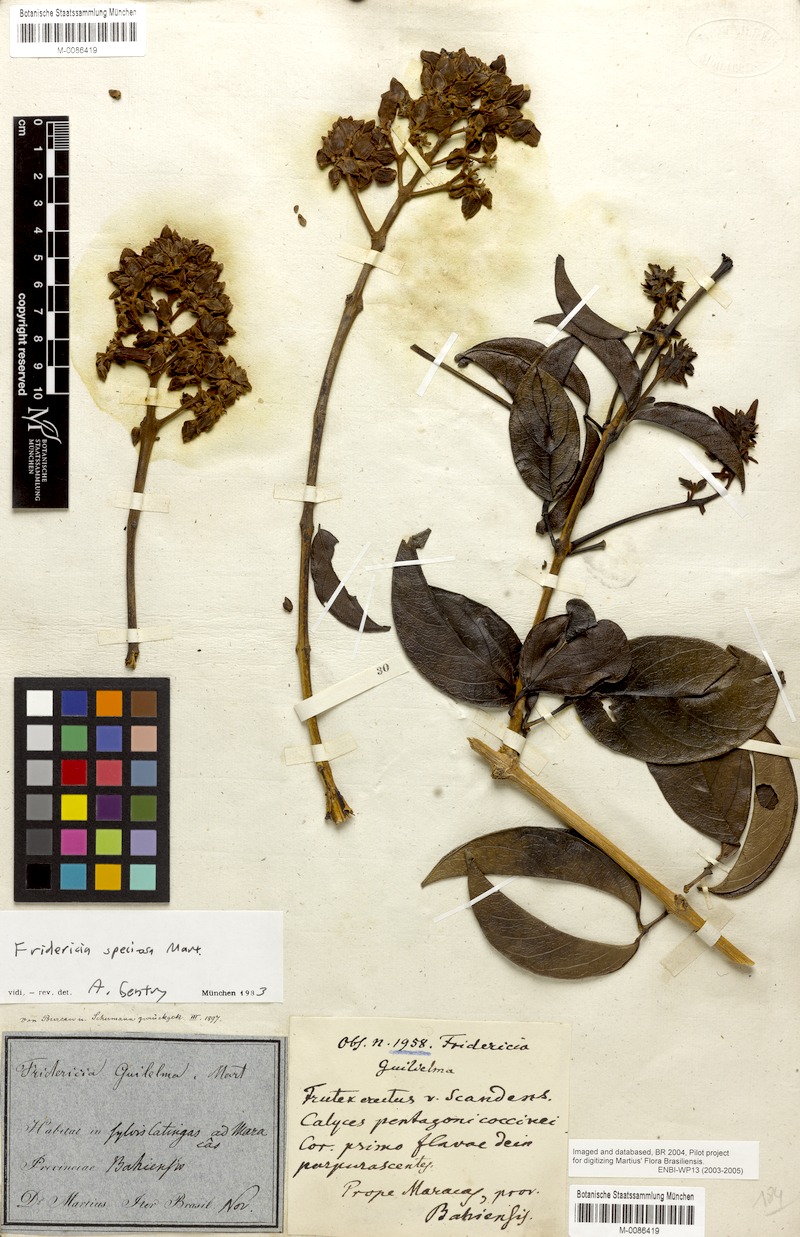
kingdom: Plantae
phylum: Tracheophyta
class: Magnoliopsida
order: Lamiales
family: Bignoniaceae
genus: Fridericia
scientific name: Fridericia speciosa
